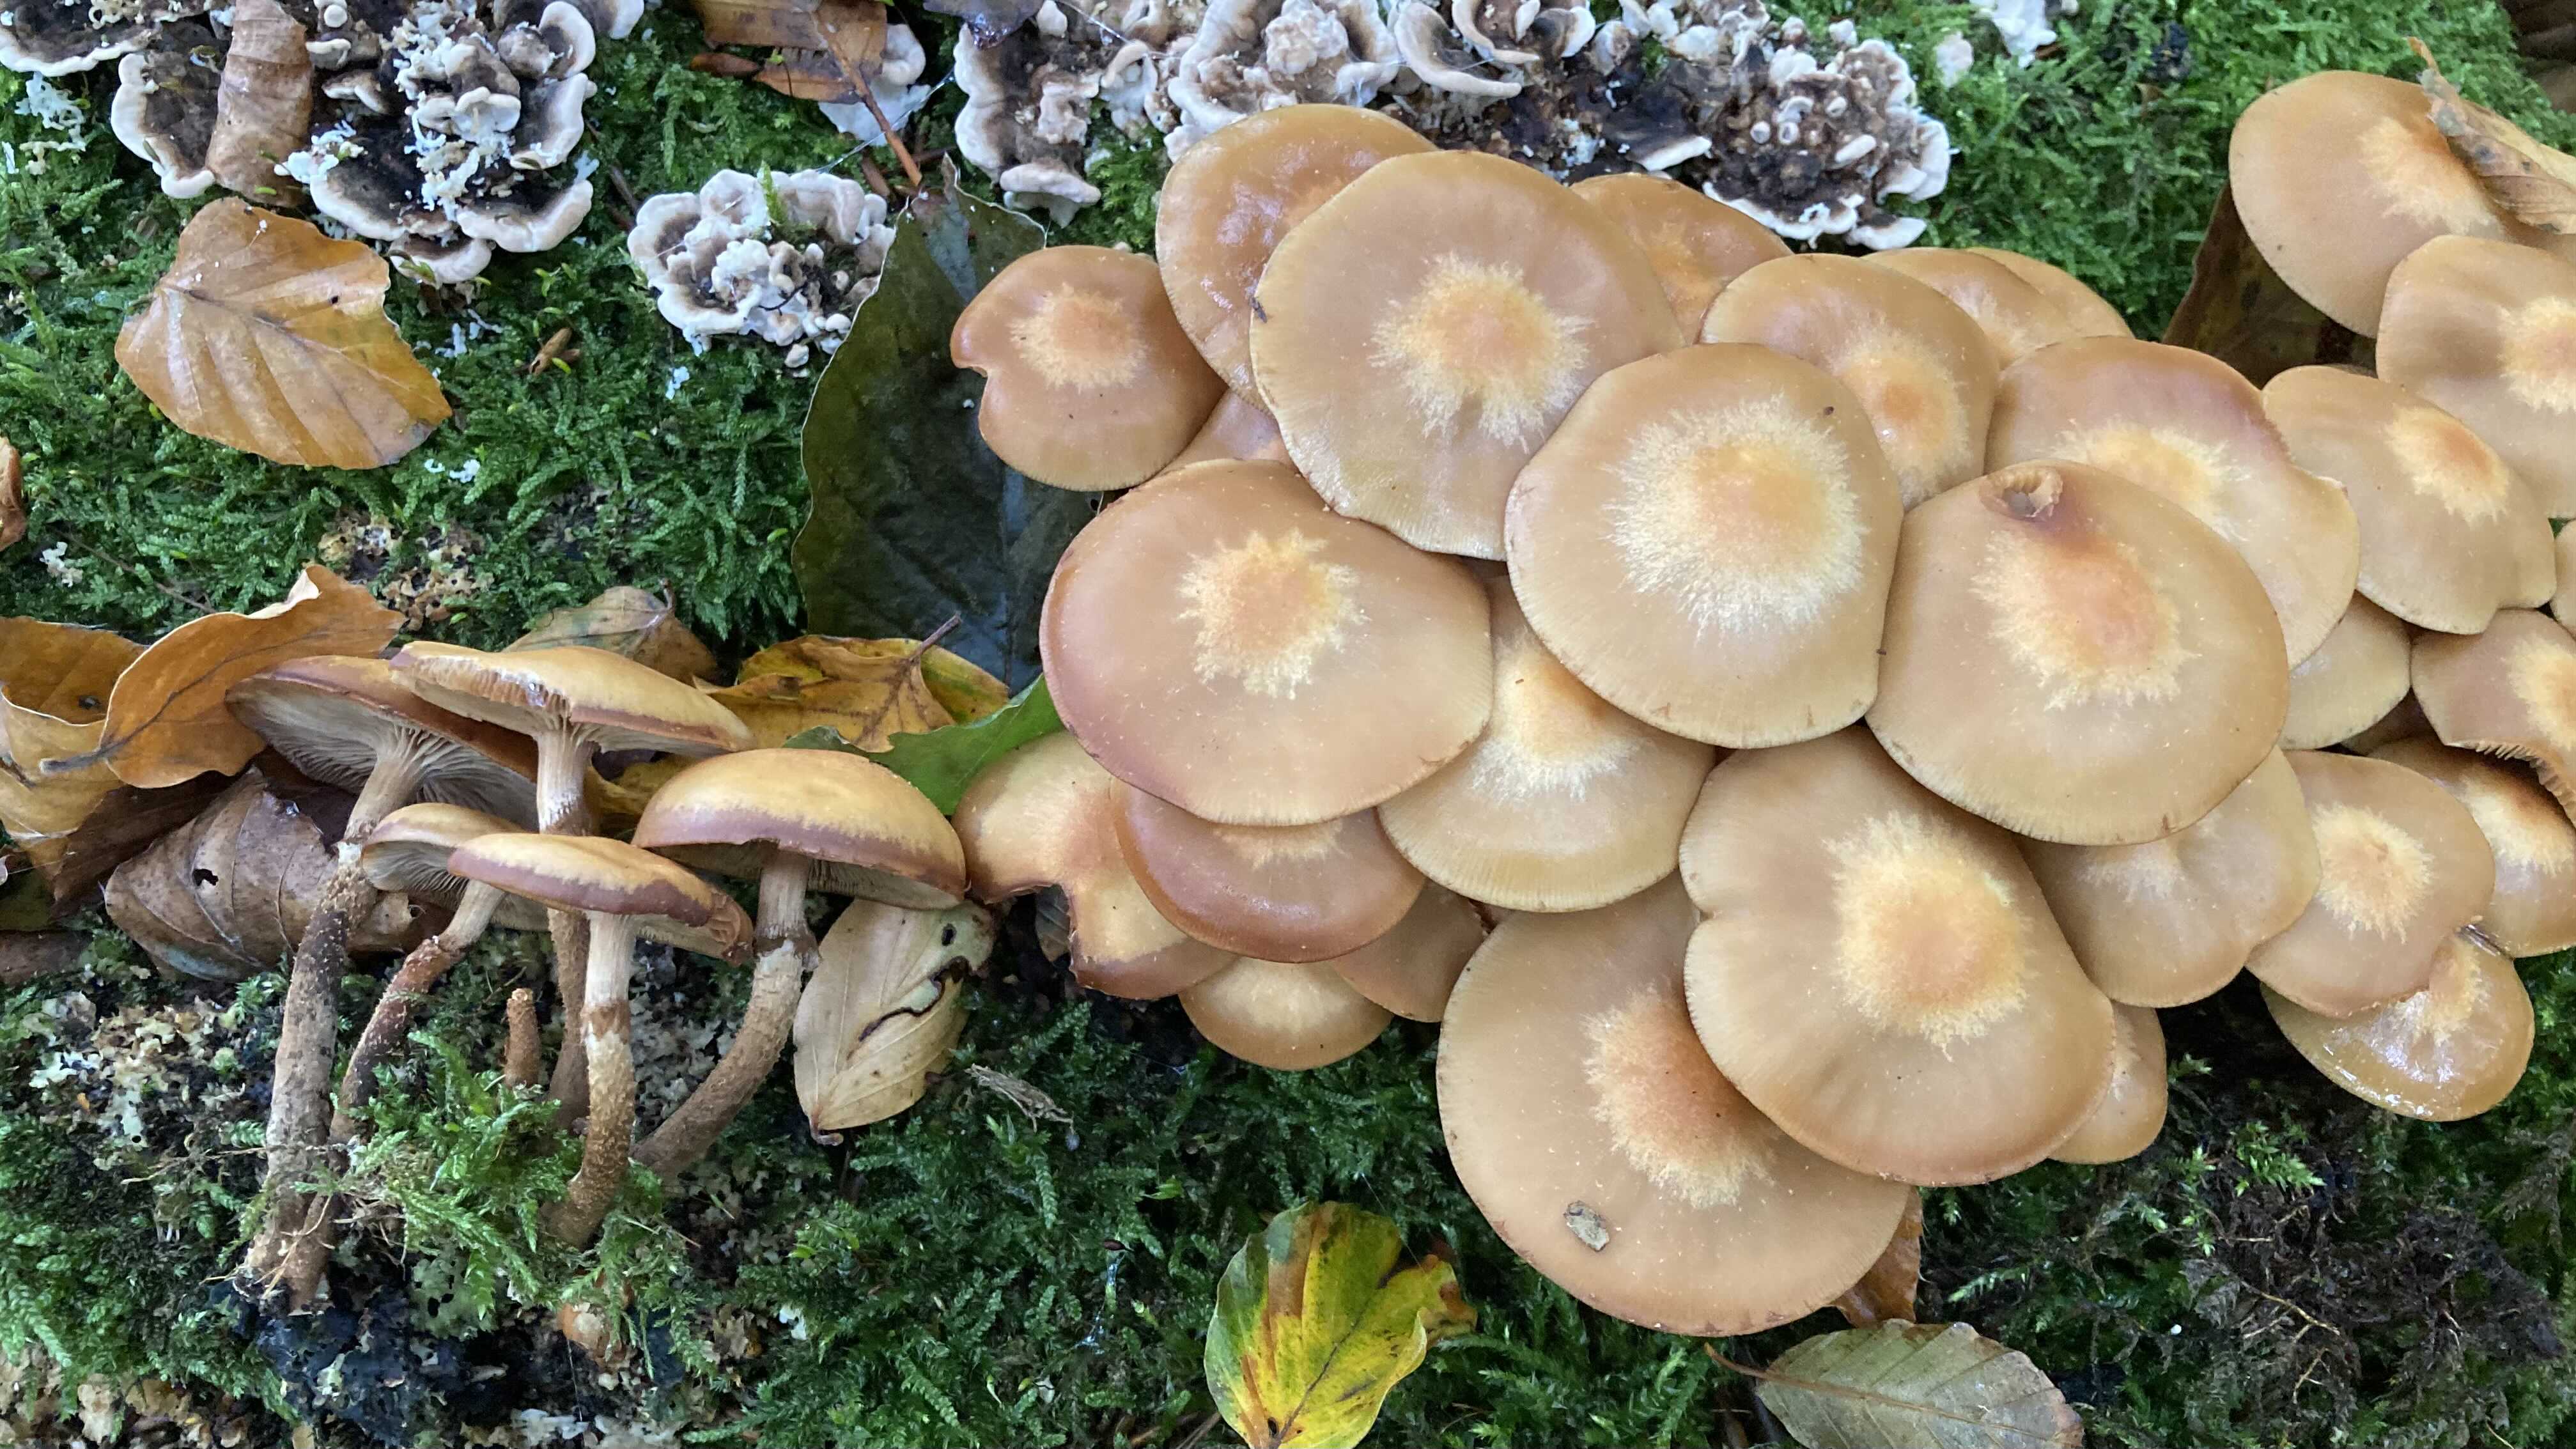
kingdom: Fungi
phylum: Basidiomycota
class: Agaricomycetes
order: Agaricales
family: Strophariaceae
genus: Kuehneromyces
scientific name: Kuehneromyces mutabilis
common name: foranderlig skælhat
